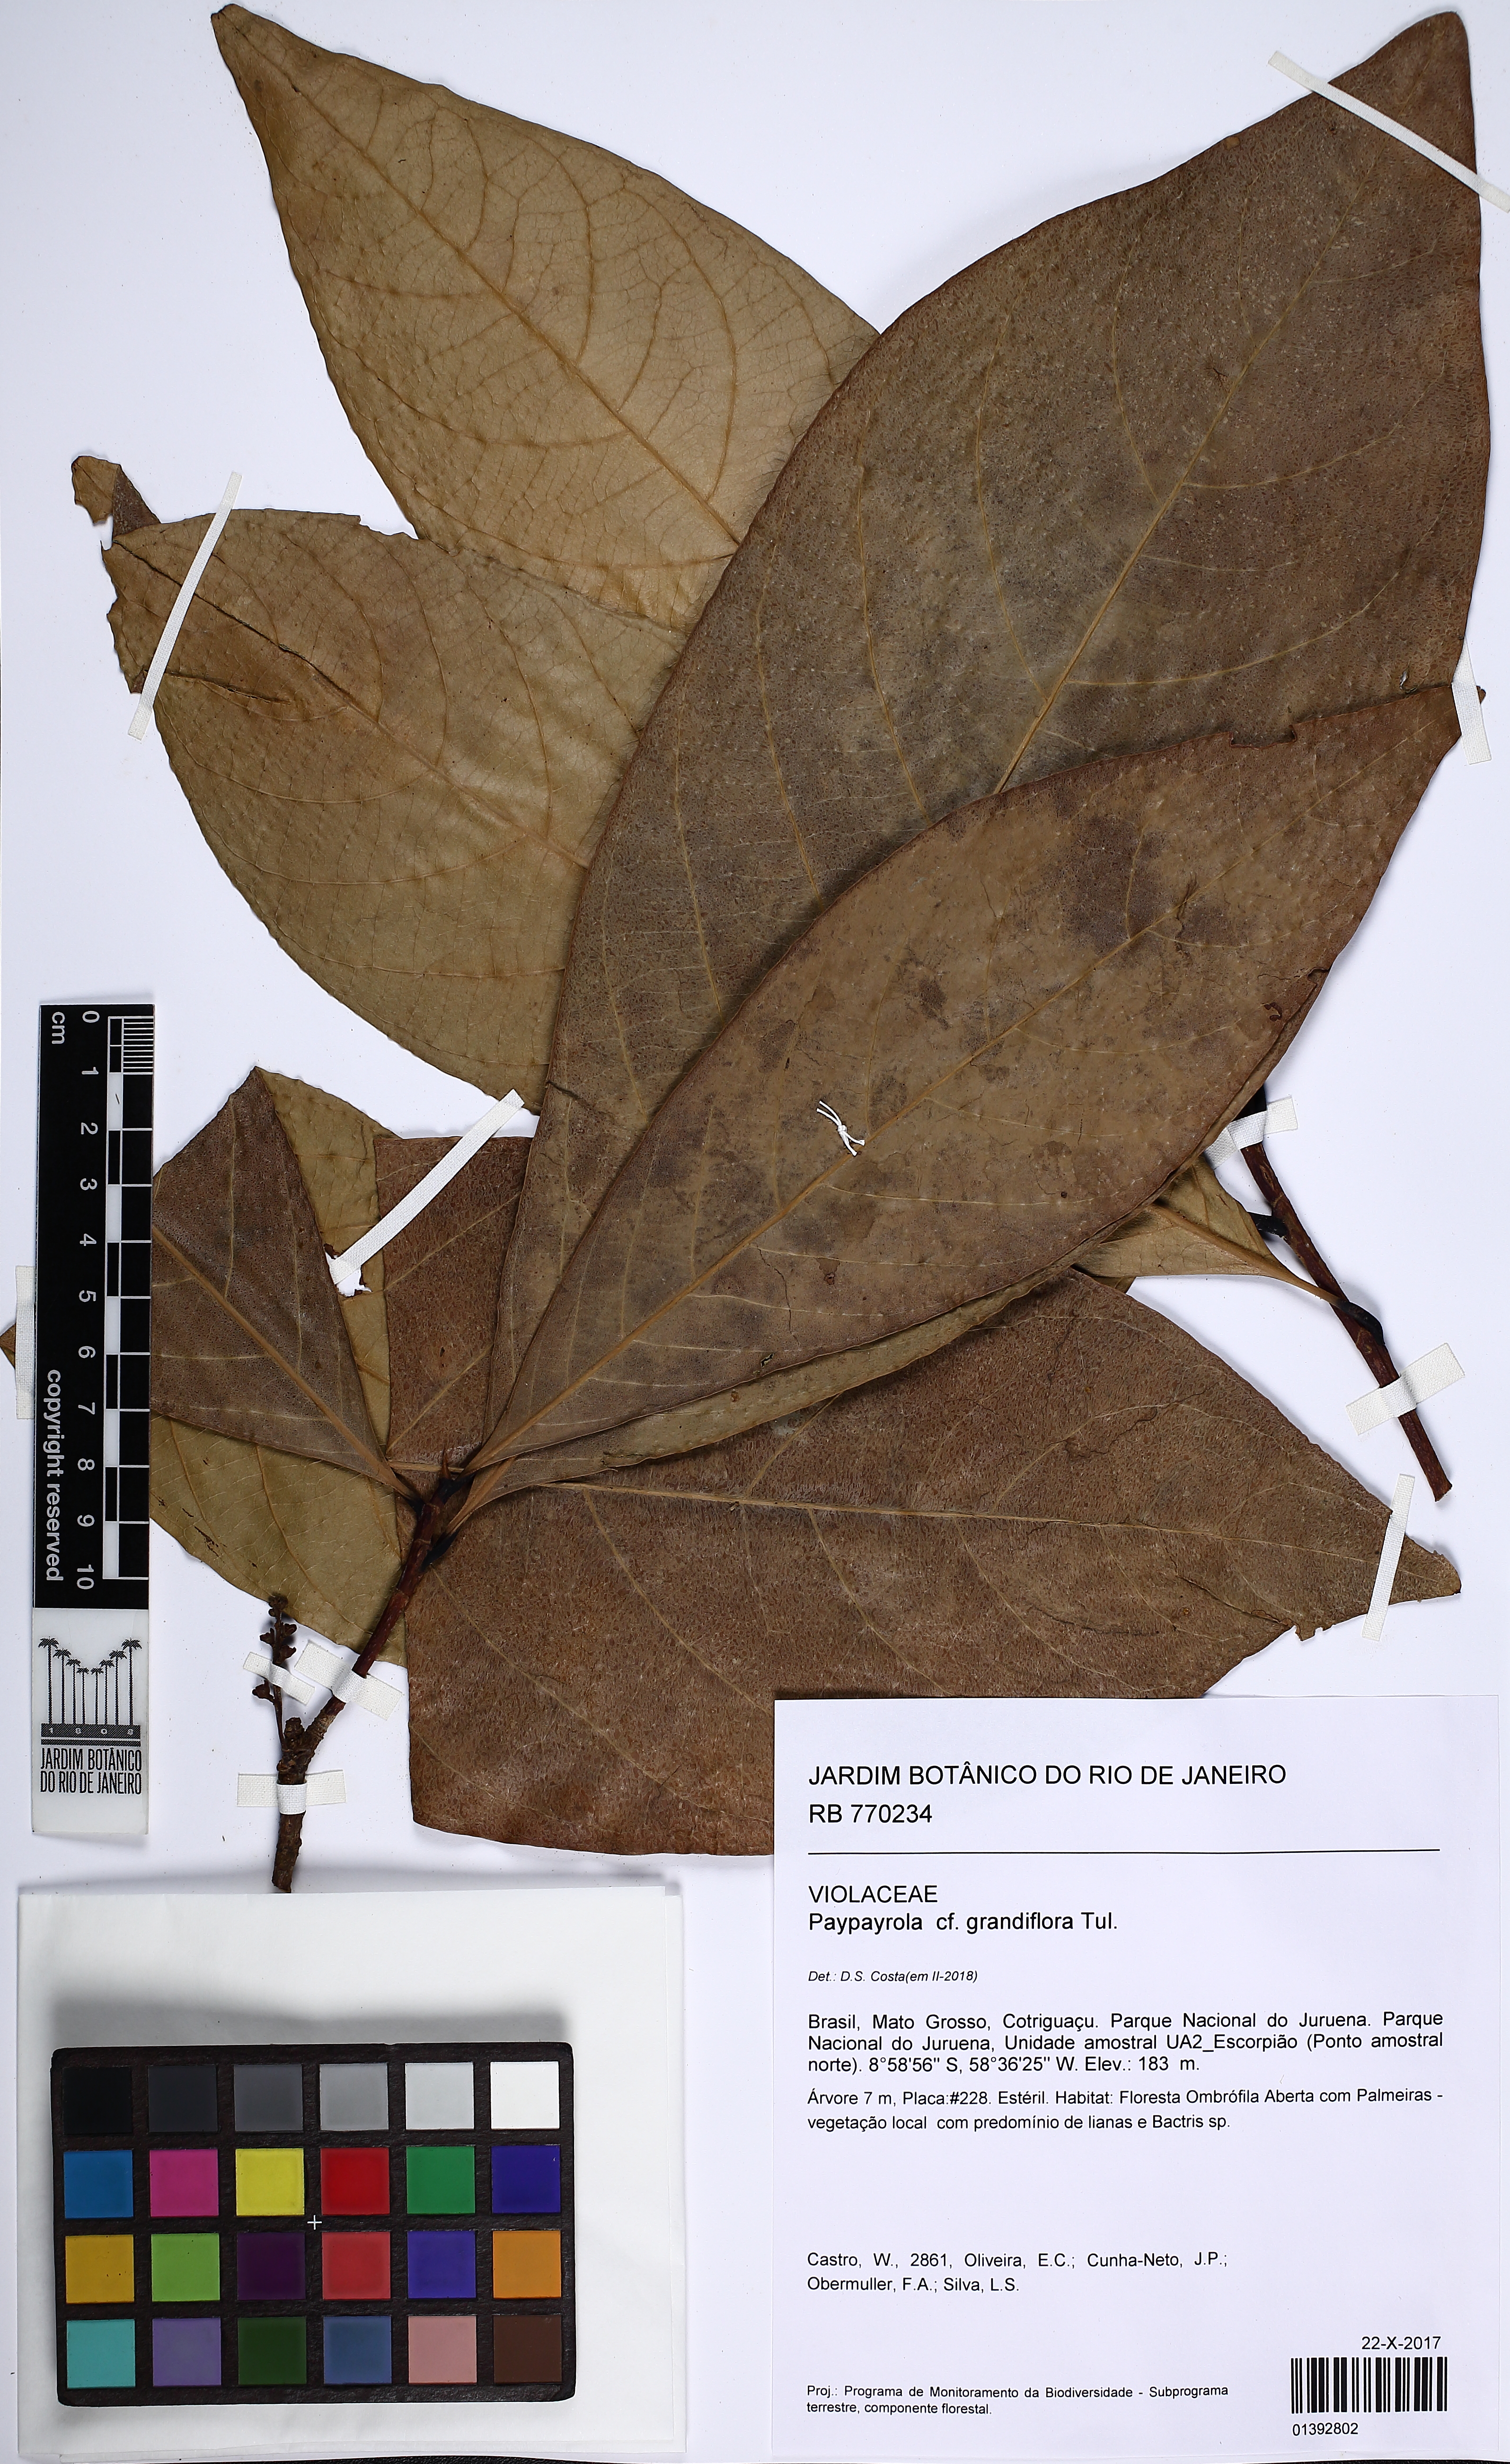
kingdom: Plantae
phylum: Tracheophyta
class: Magnoliopsida
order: Malpighiales
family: Violaceae
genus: Paypayrola
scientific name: Paypayrola grandiflora
